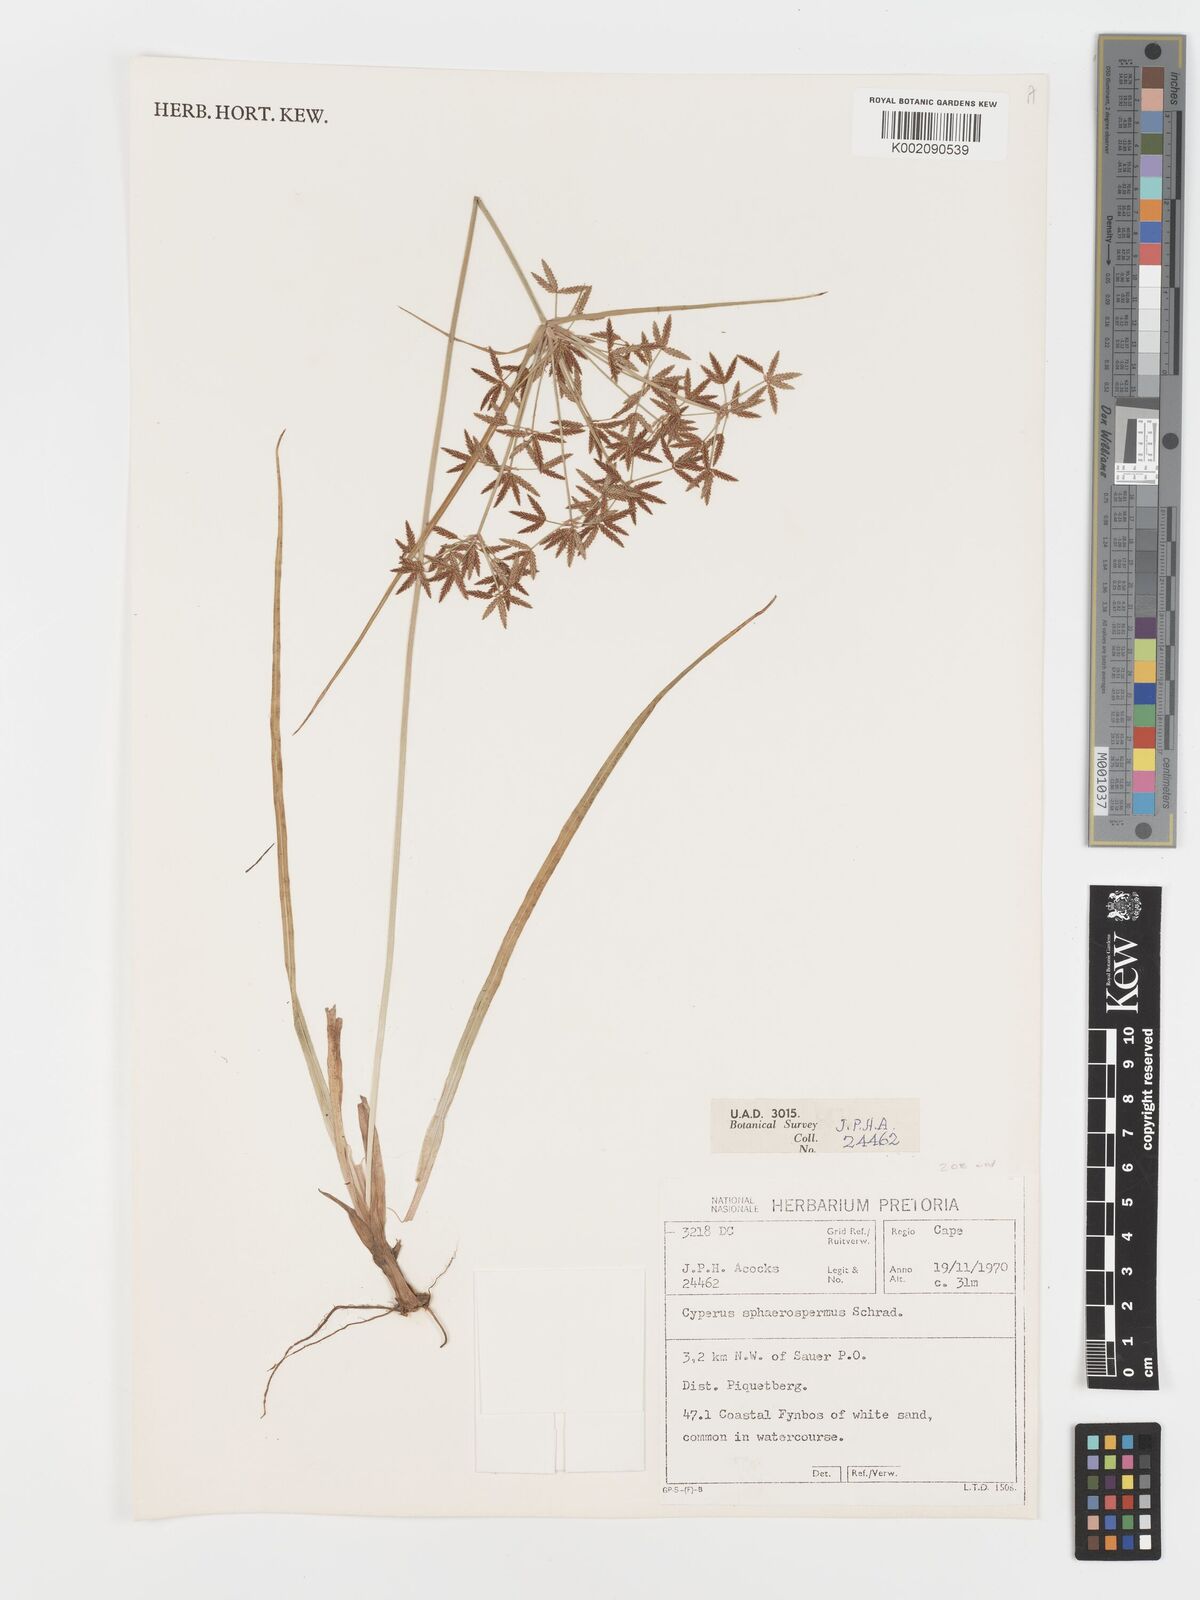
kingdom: Plantae
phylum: Tracheophyta
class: Liliopsida
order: Poales
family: Cyperaceae
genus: Cyperus
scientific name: Cyperus sphaerospermus
